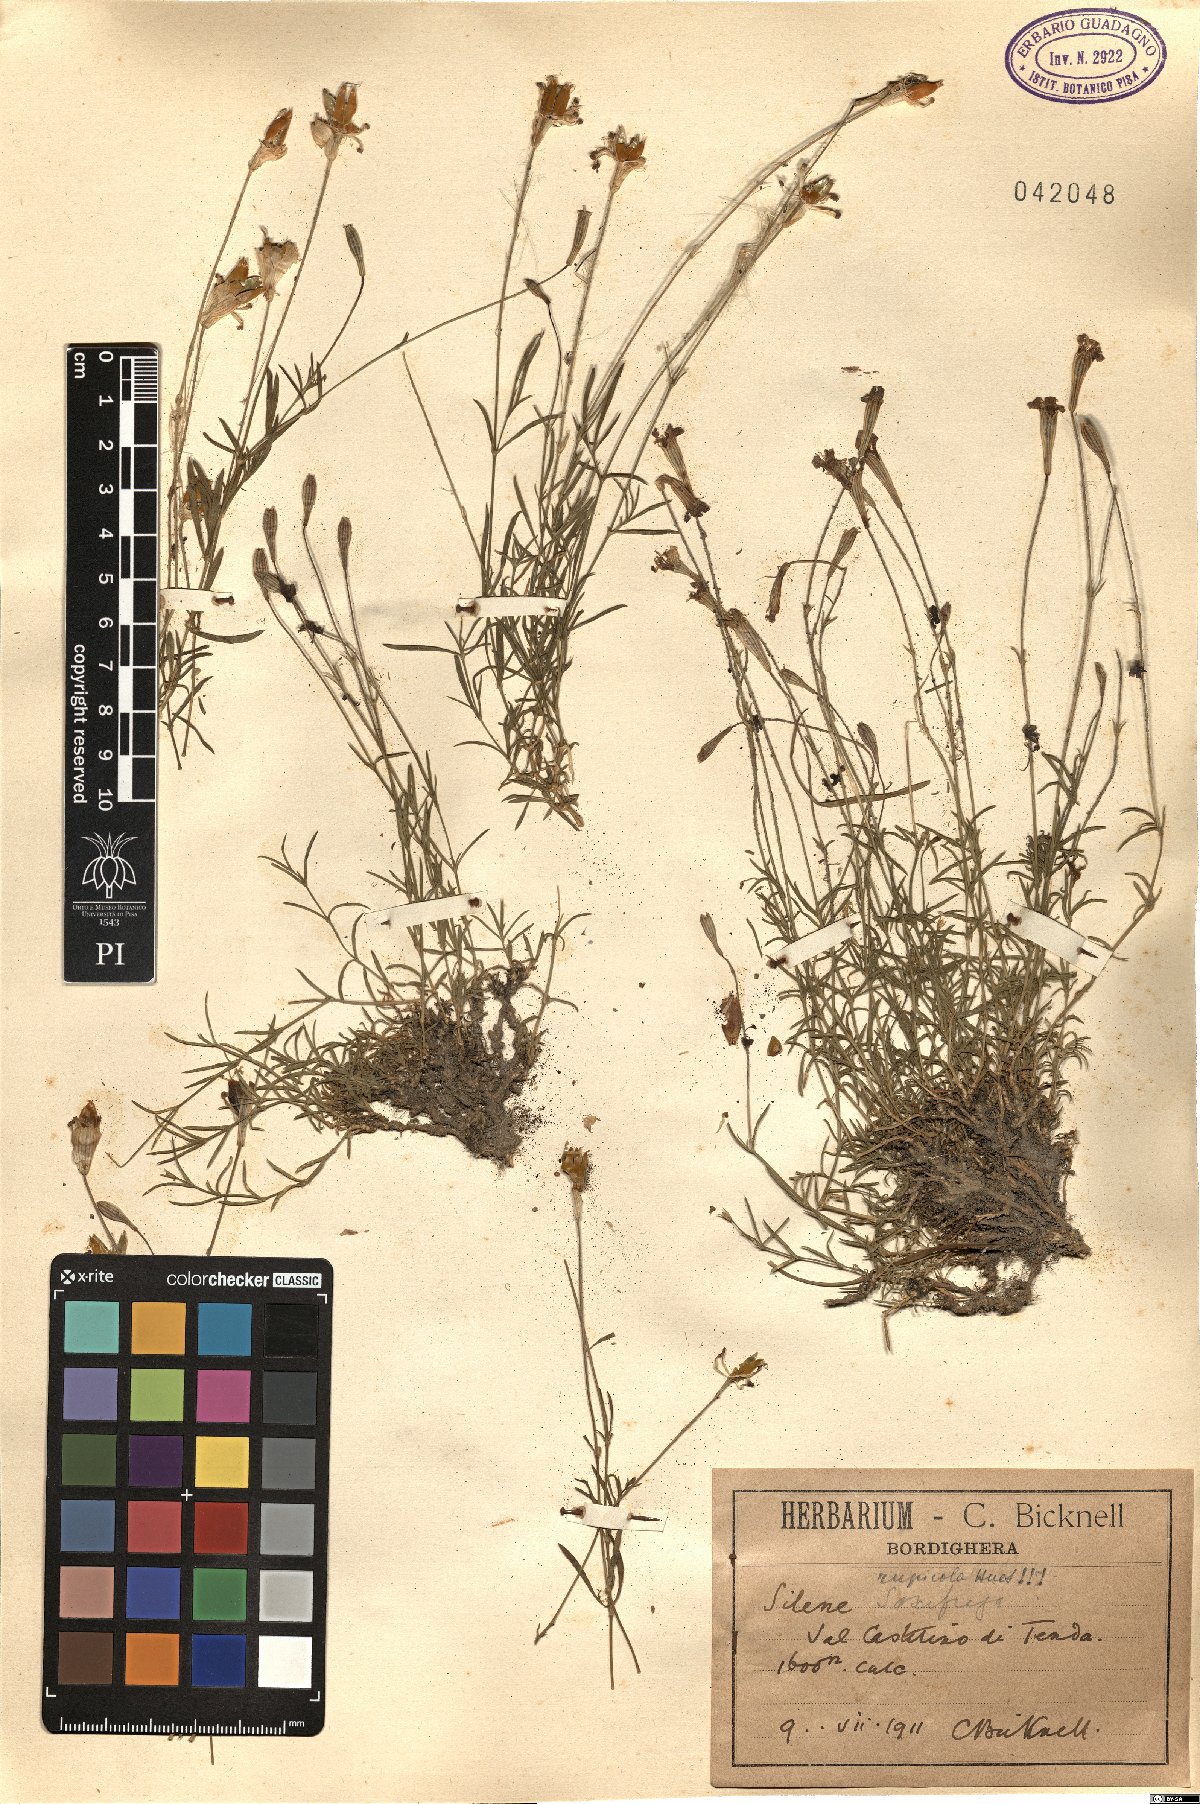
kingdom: Plantae
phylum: Tracheophyta
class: Magnoliopsida
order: Caryophyllales
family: Caryophyllaceae
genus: Silene
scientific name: Silene saxifraga
